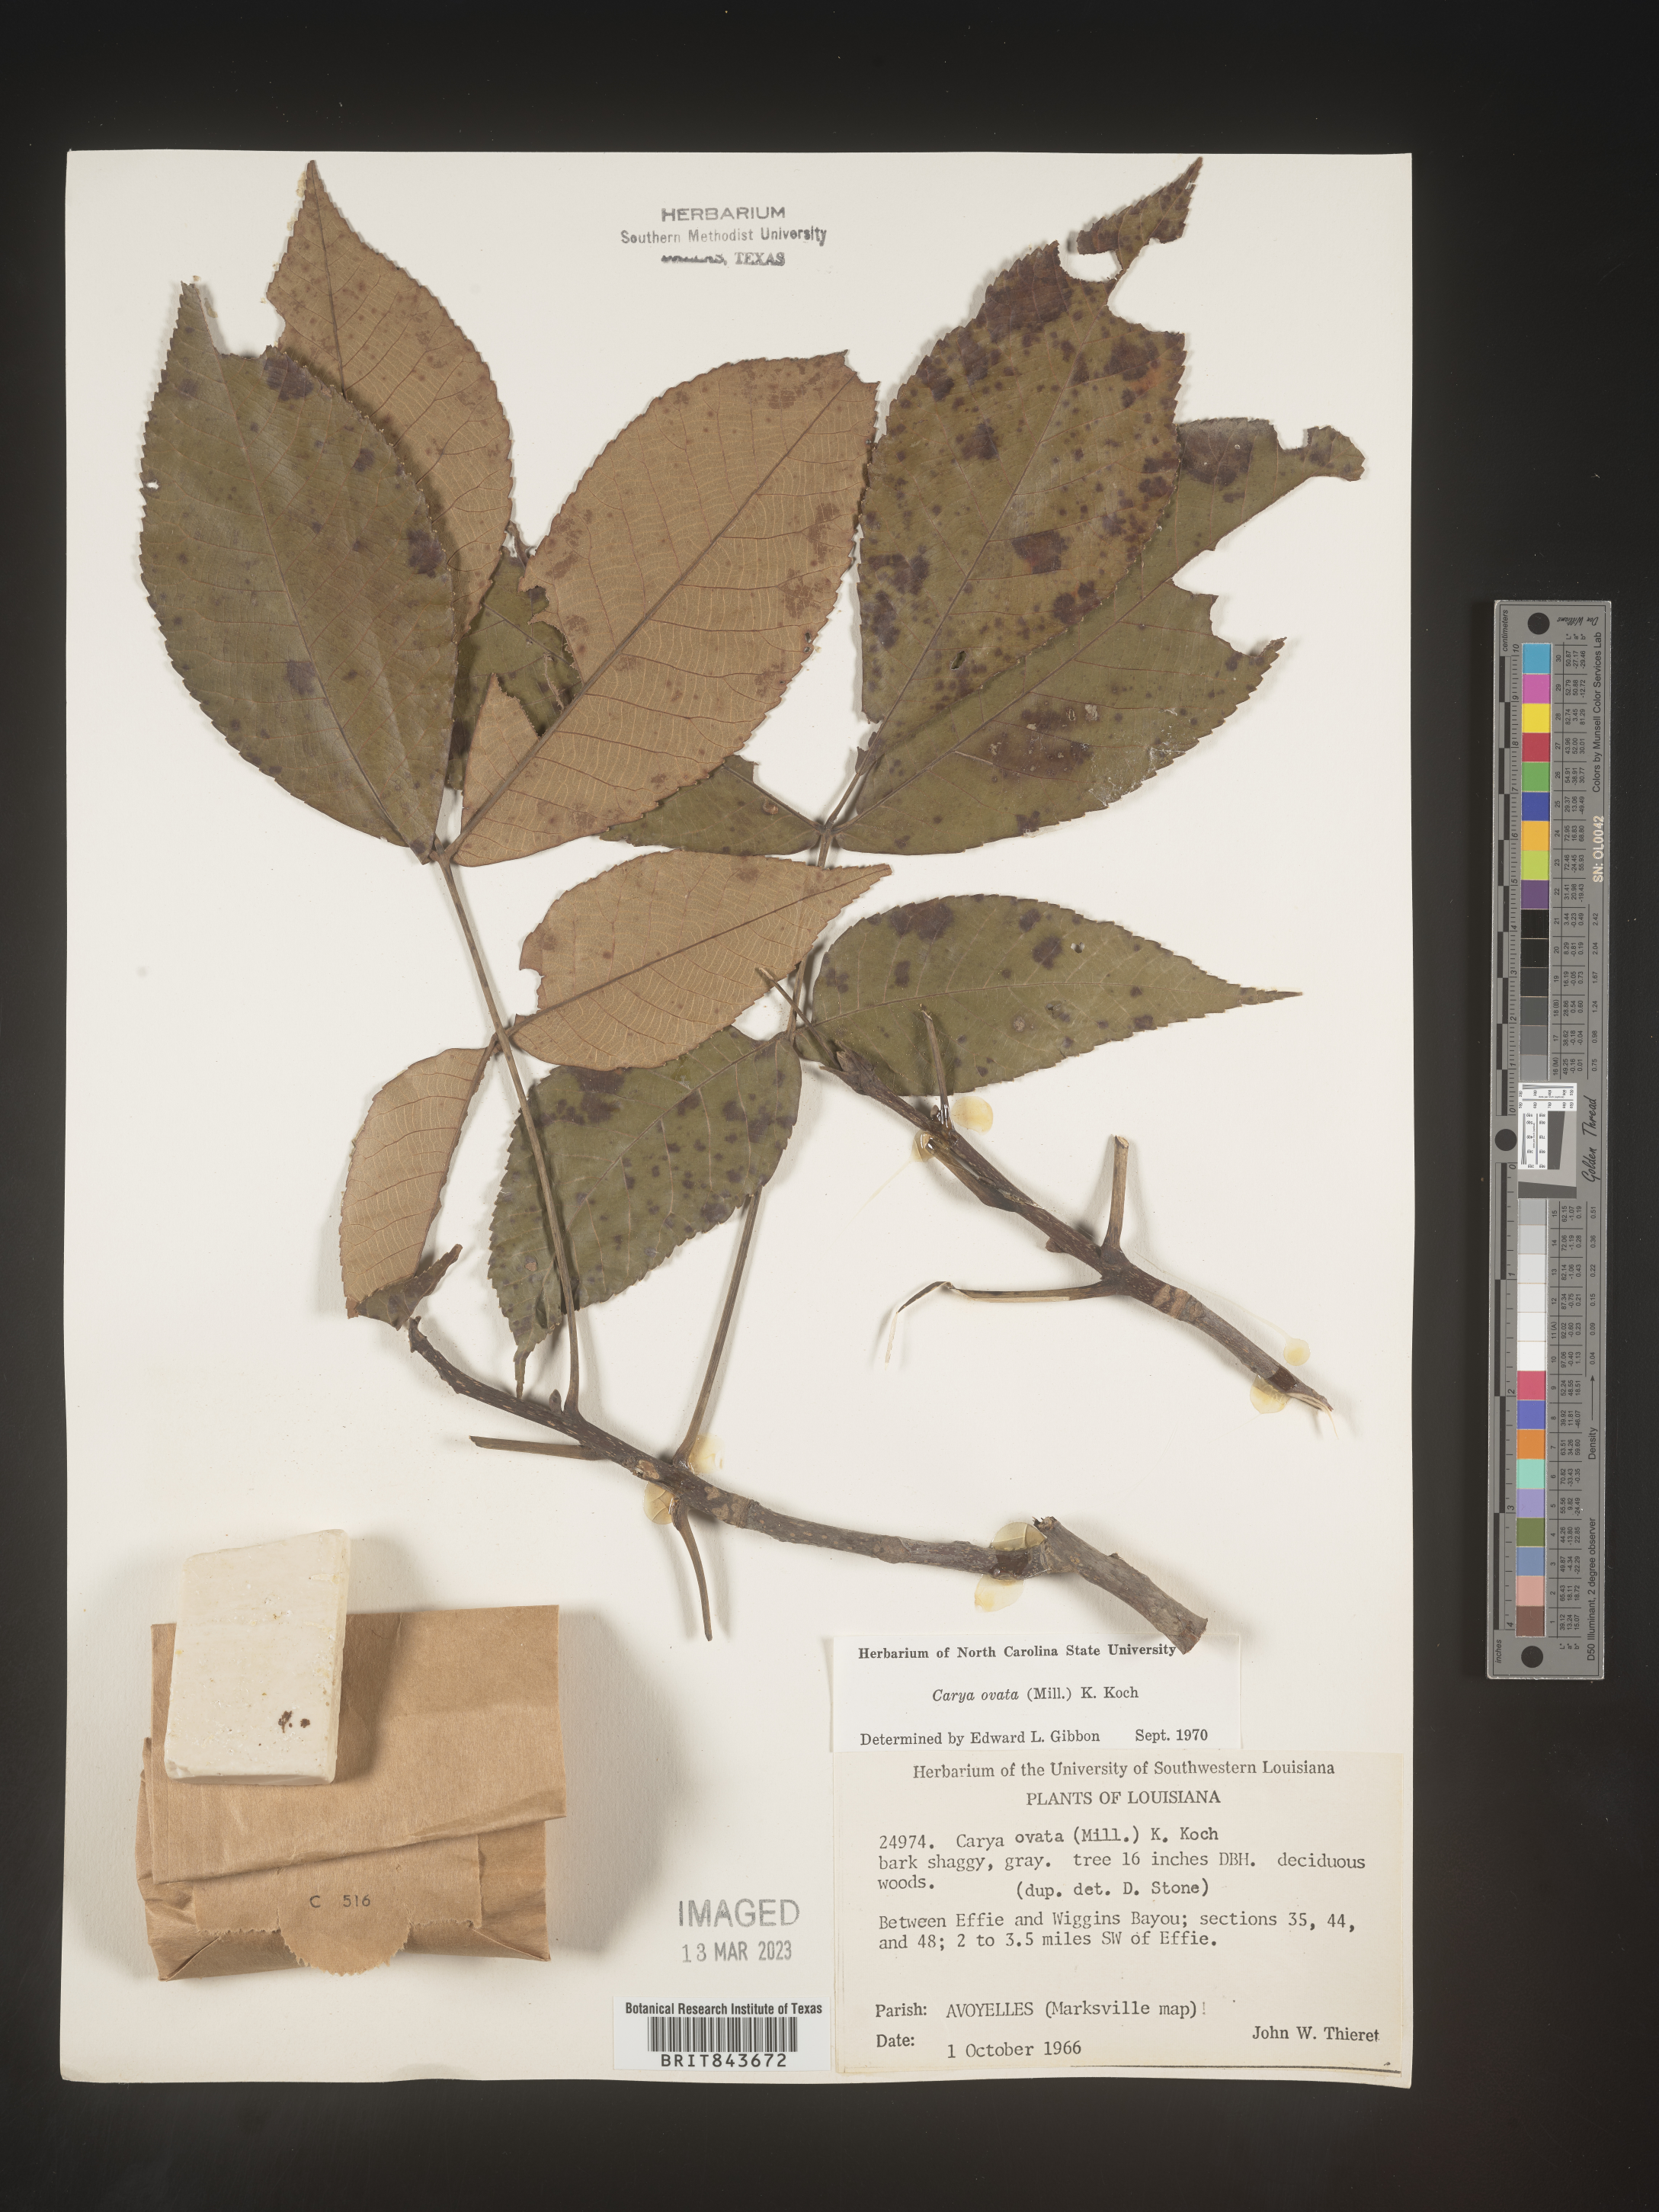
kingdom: Plantae
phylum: Tracheophyta
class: Magnoliopsida
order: Fagales
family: Juglandaceae
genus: Carya
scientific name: Carya ovata
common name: Shagbark hickory
